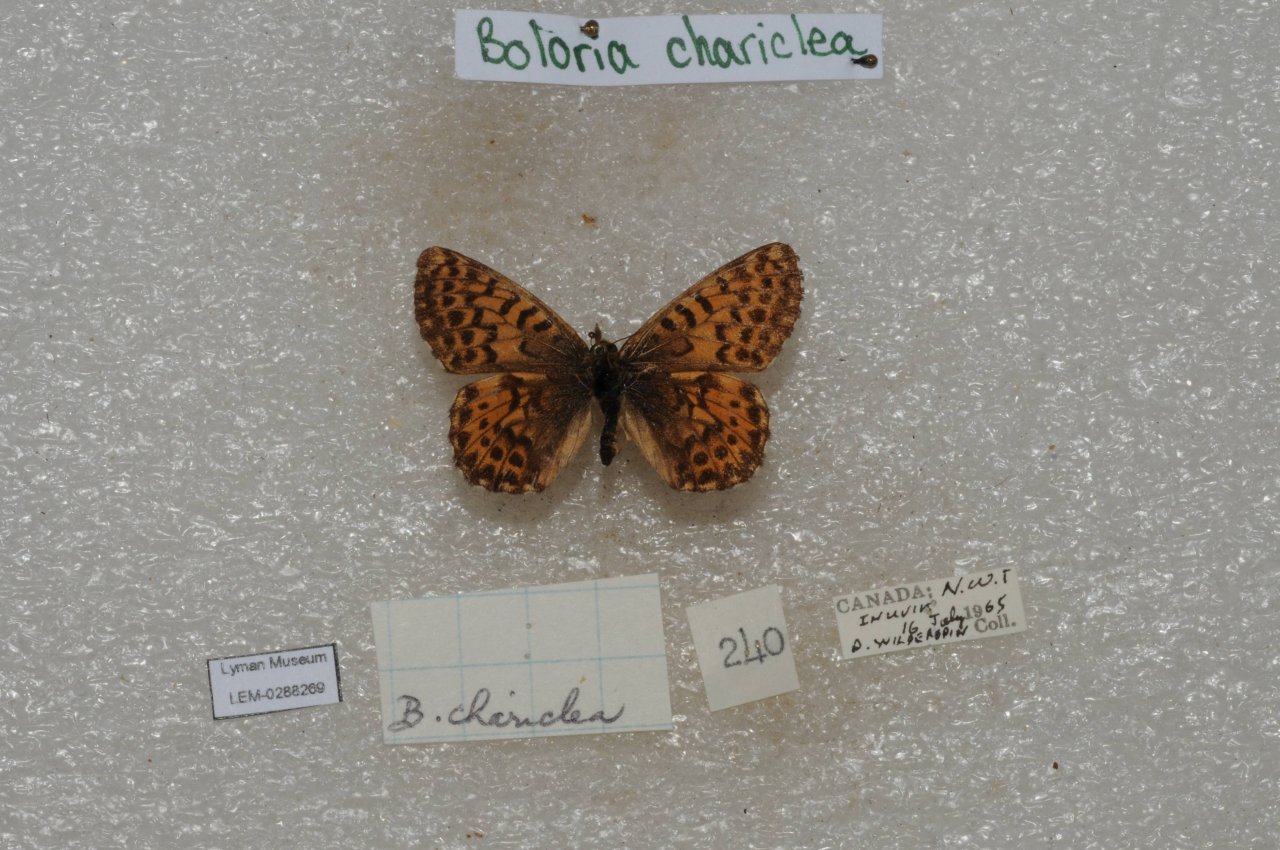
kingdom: Animalia
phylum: Arthropoda
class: Insecta
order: Lepidoptera
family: Nymphalidae
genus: Boloria
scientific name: Boloria chariclea
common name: Arctic Fritillary
